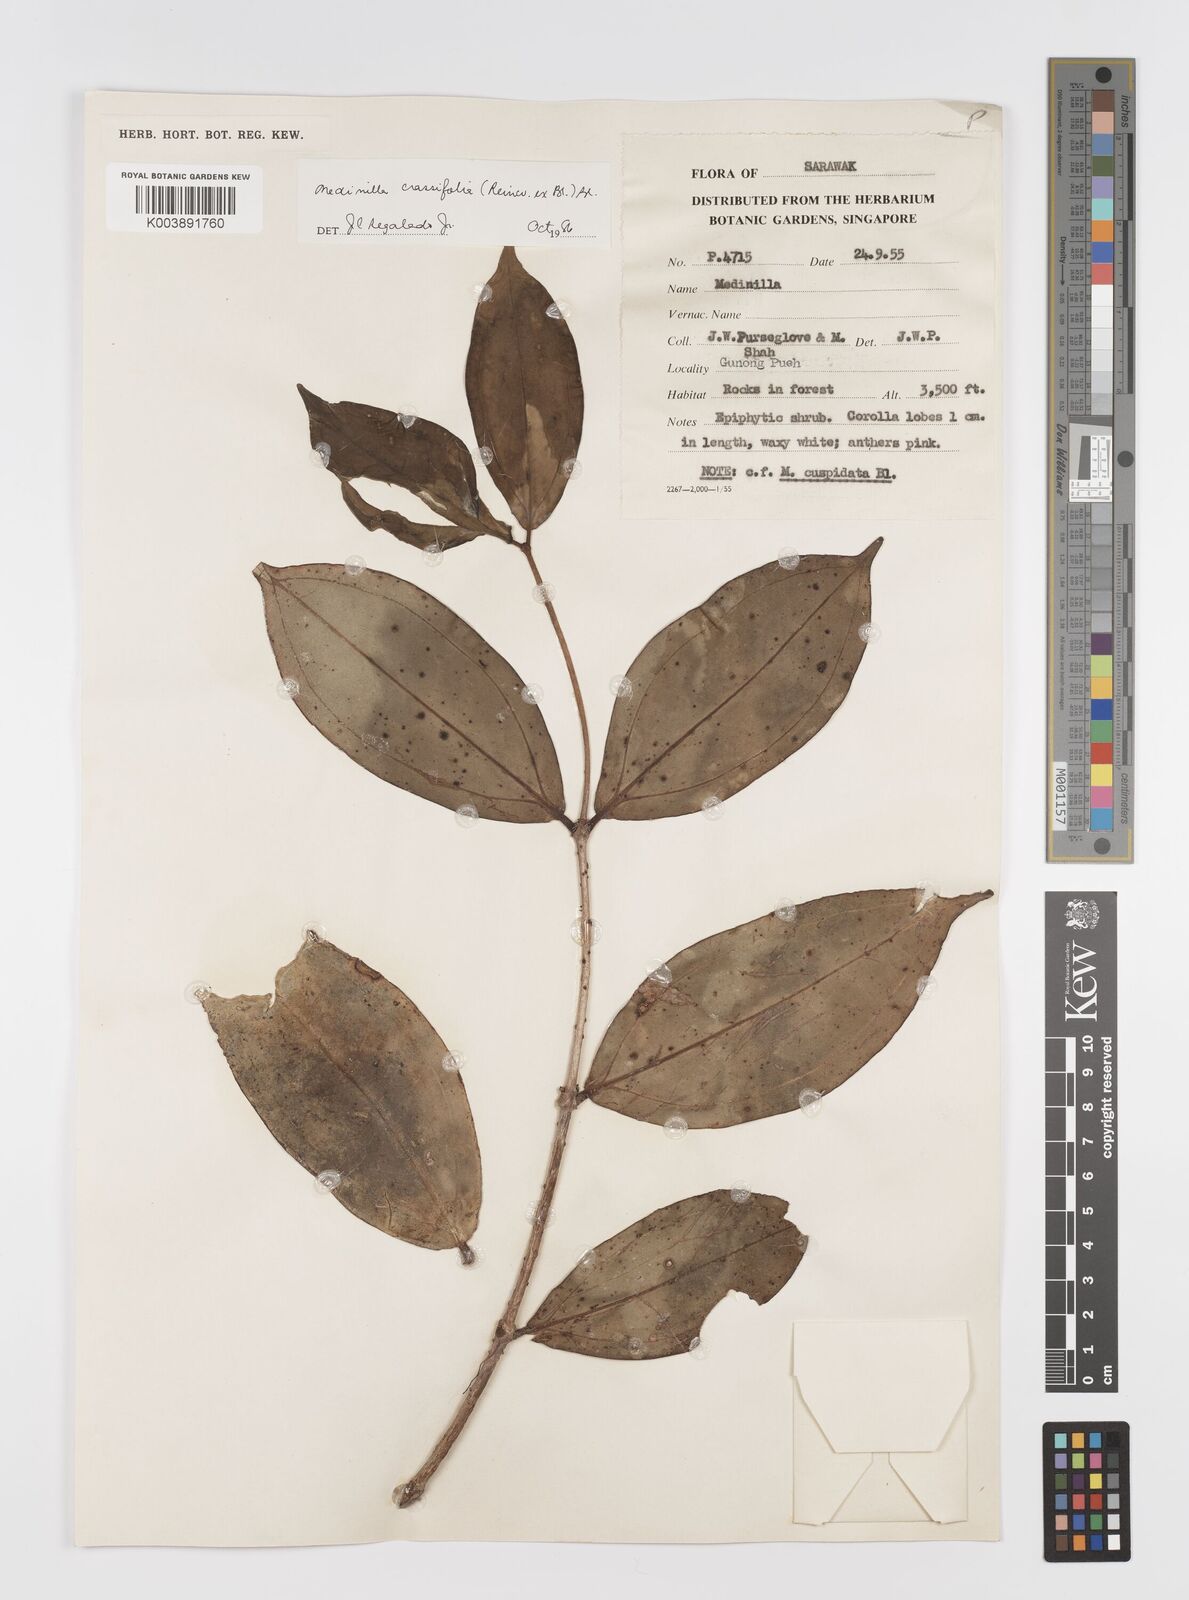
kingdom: Plantae
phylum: Tracheophyta
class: Magnoliopsida
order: Myrtales
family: Melastomataceae
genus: Medinilla
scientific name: Medinilla crassifolia
